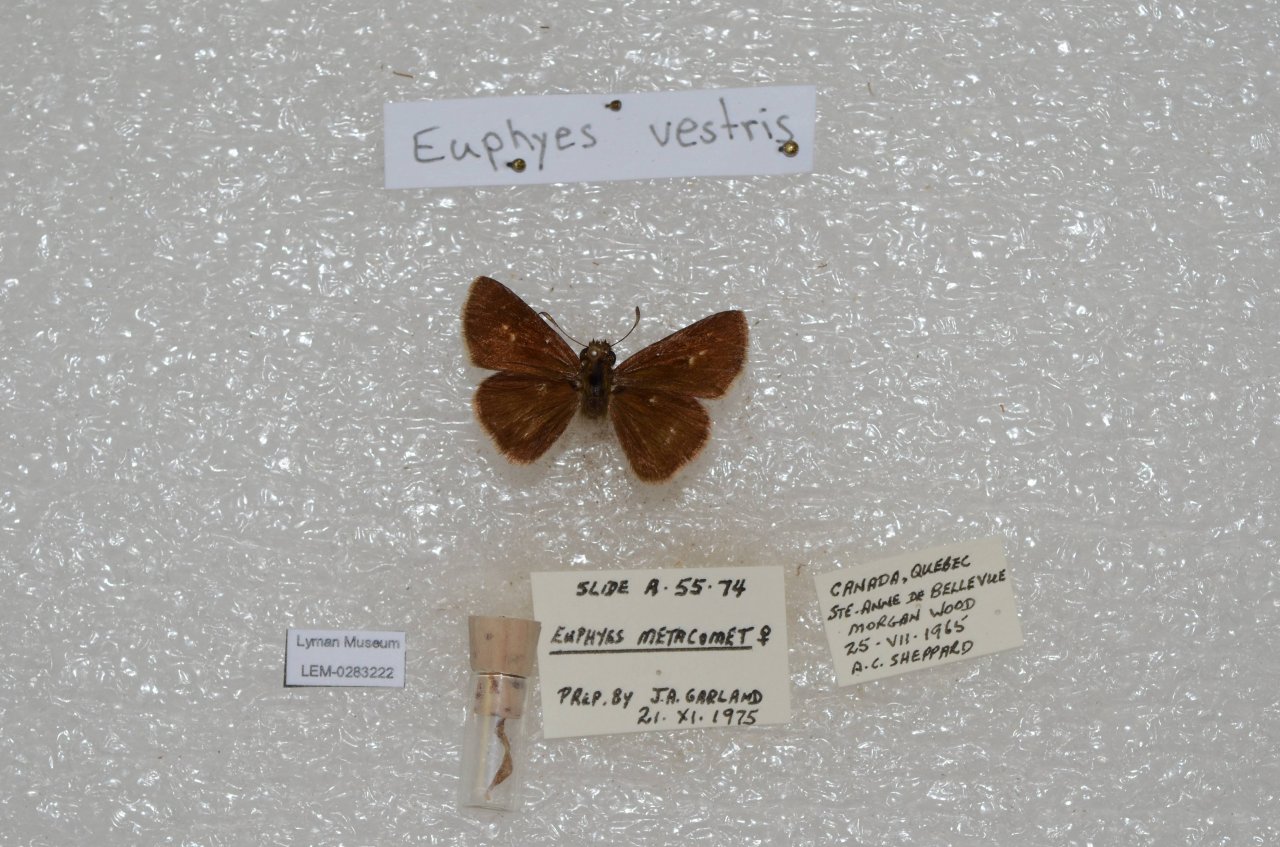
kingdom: Animalia
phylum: Arthropoda
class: Insecta
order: Lepidoptera
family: Hesperiidae
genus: Euphyes
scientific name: Euphyes vestris
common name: Dun Skipper
